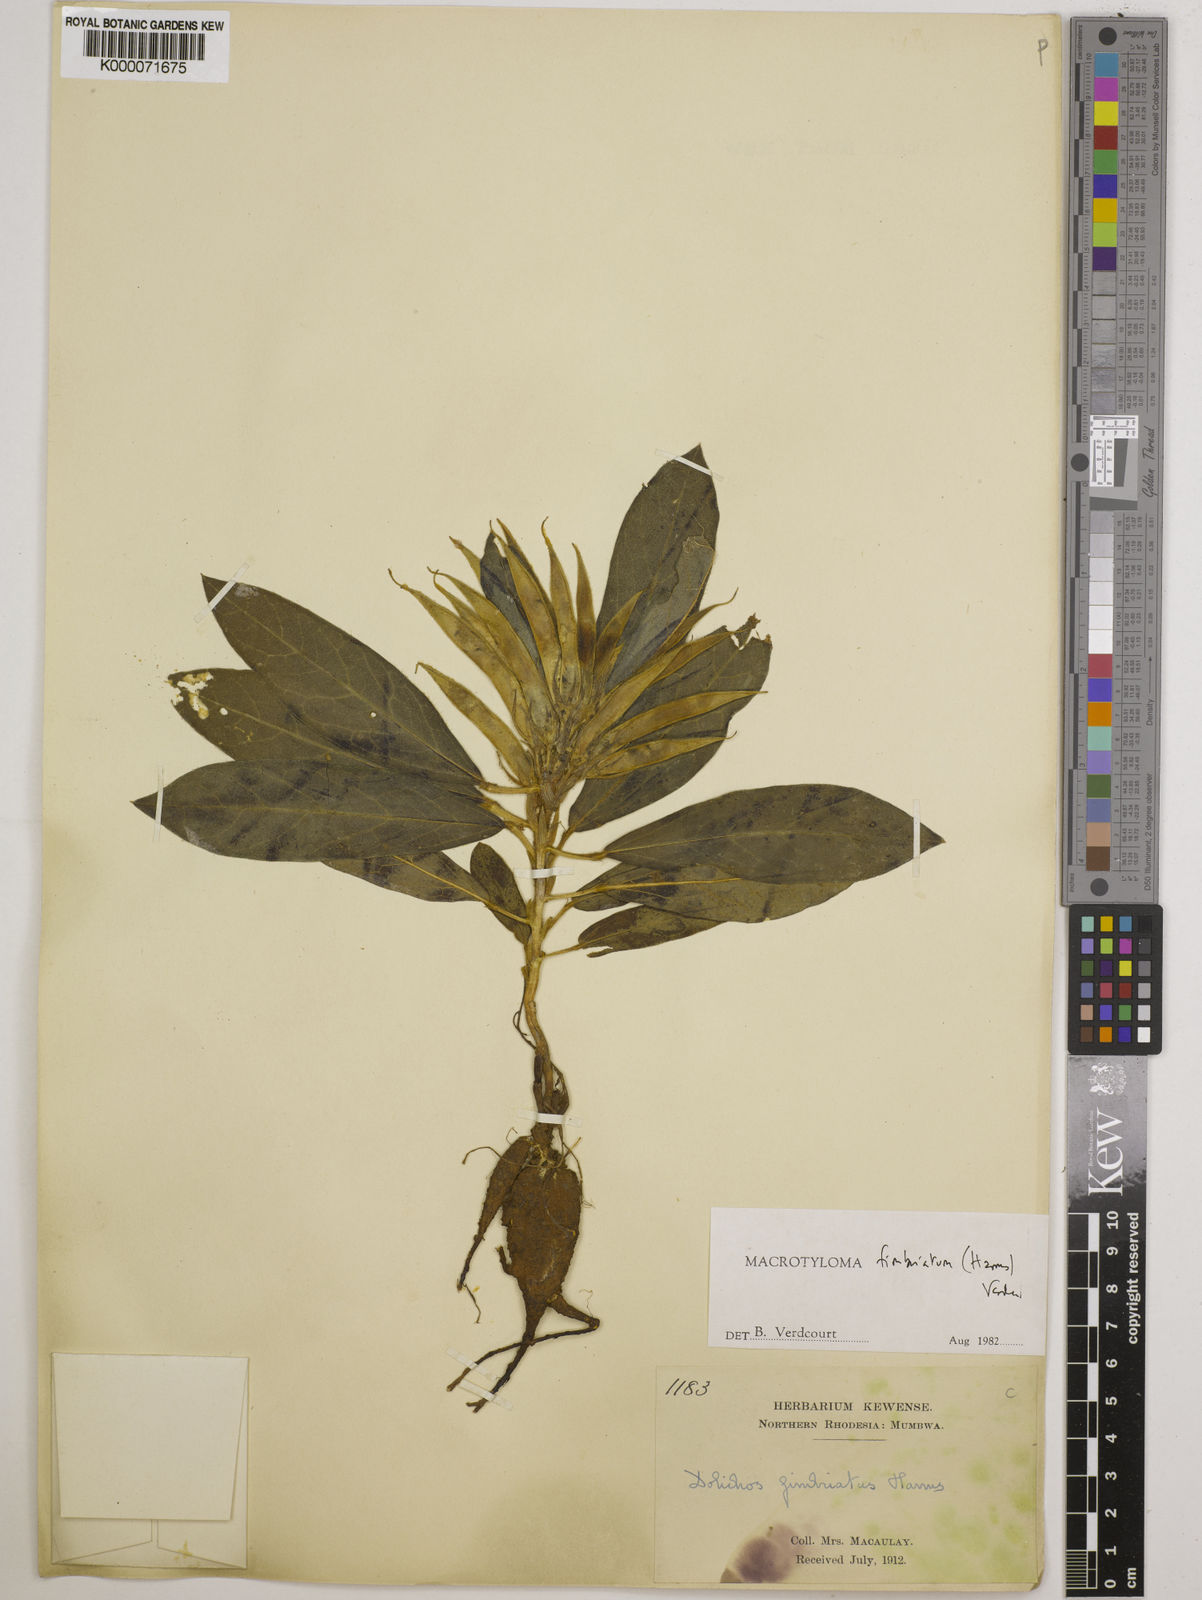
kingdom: Plantae
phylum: Tracheophyta
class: Magnoliopsida
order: Fabales
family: Fabaceae
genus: Macrotyloma
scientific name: Macrotyloma fimbriatum
